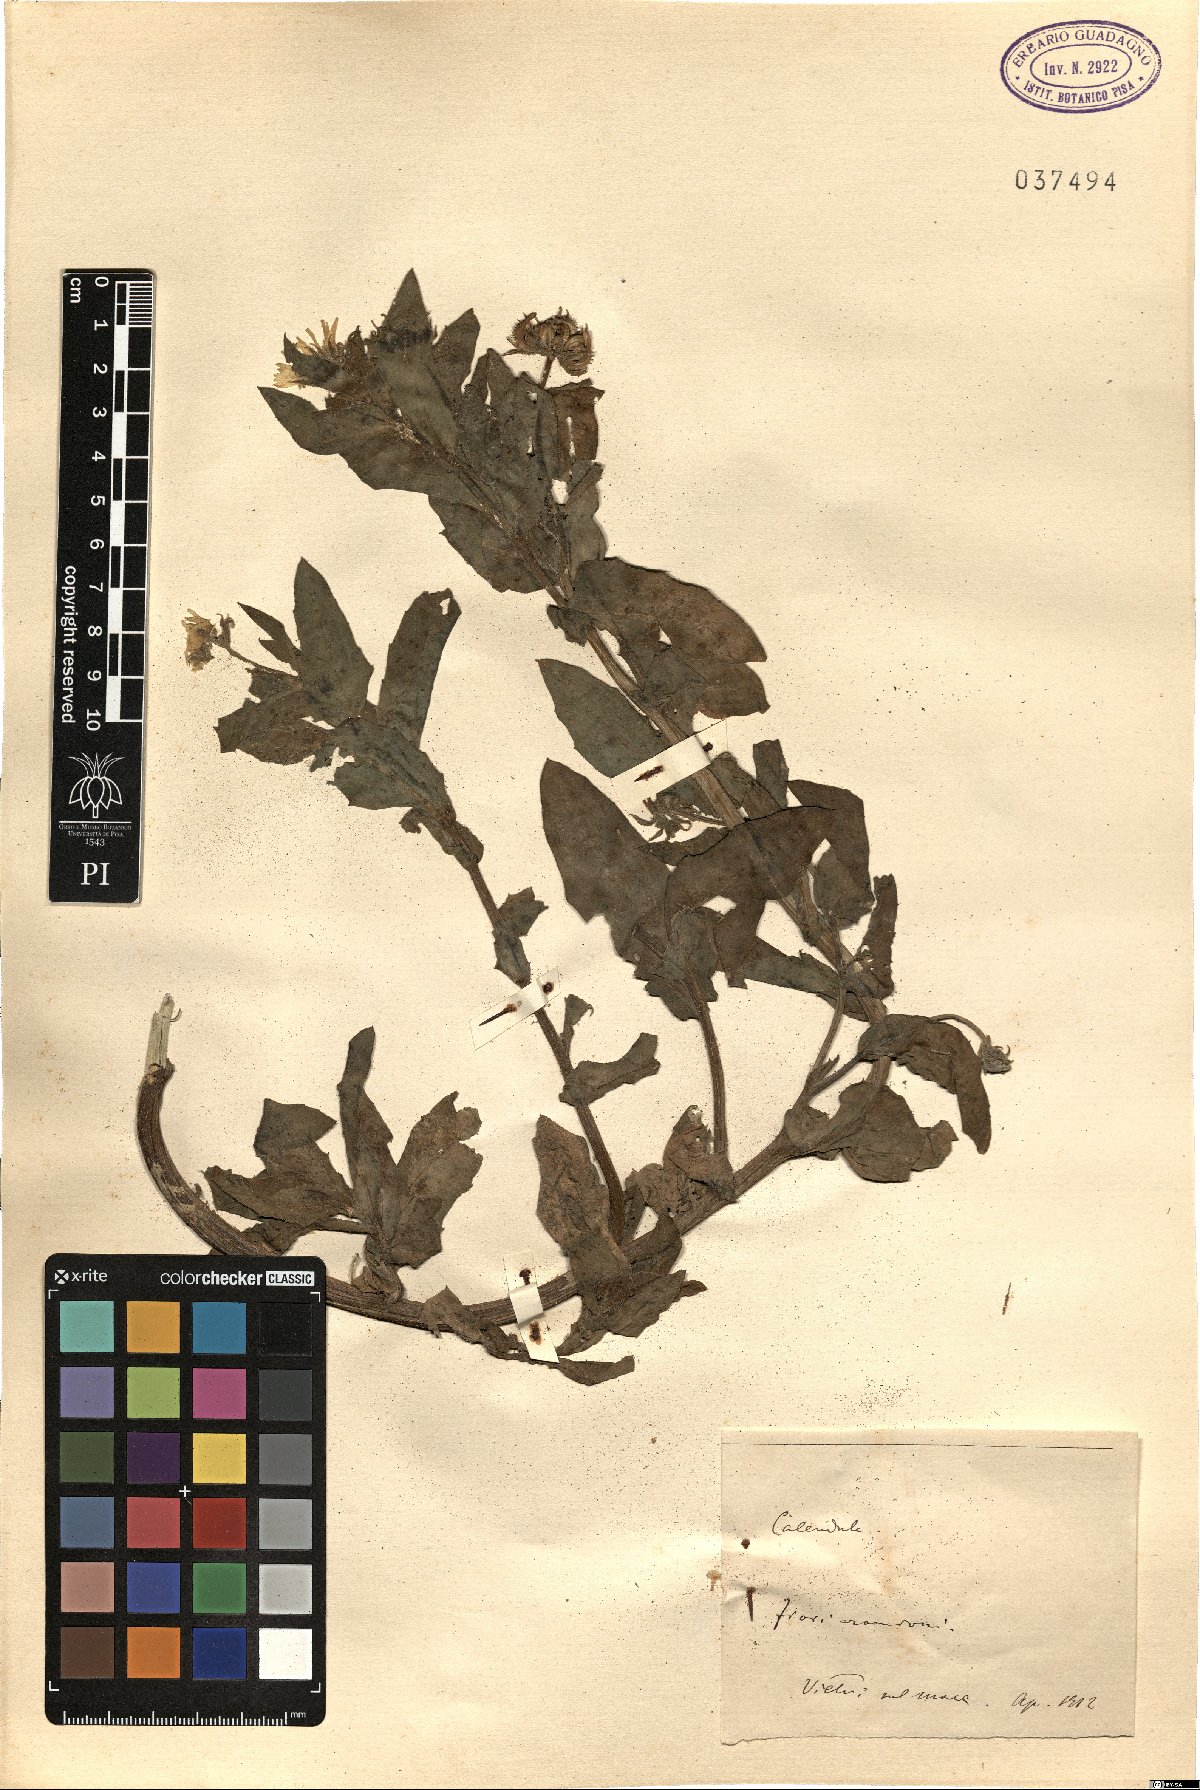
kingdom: Plantae
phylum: Tracheophyta
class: Magnoliopsida
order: Asterales
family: Asteraceae
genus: Calendula
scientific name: Calendula
